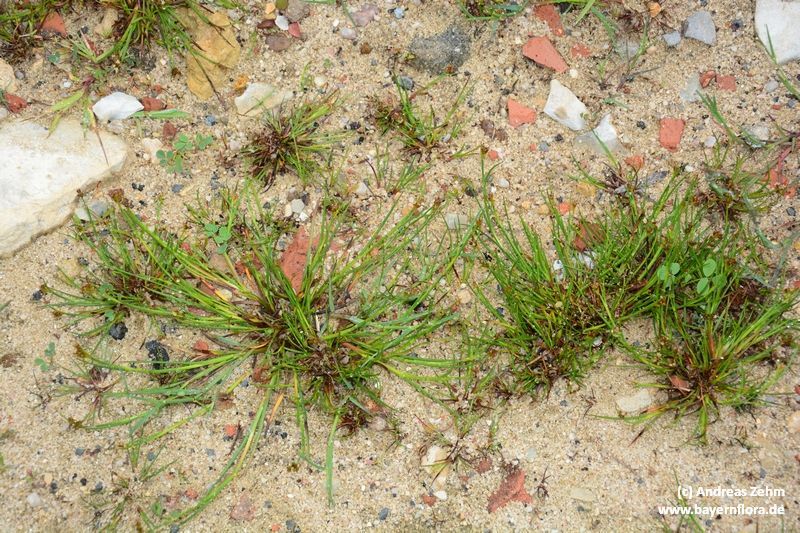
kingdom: Plantae
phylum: Tracheophyta
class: Liliopsida
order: Poales
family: Juncaceae
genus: Juncus
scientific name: Juncus articulatus
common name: Jointed rush
